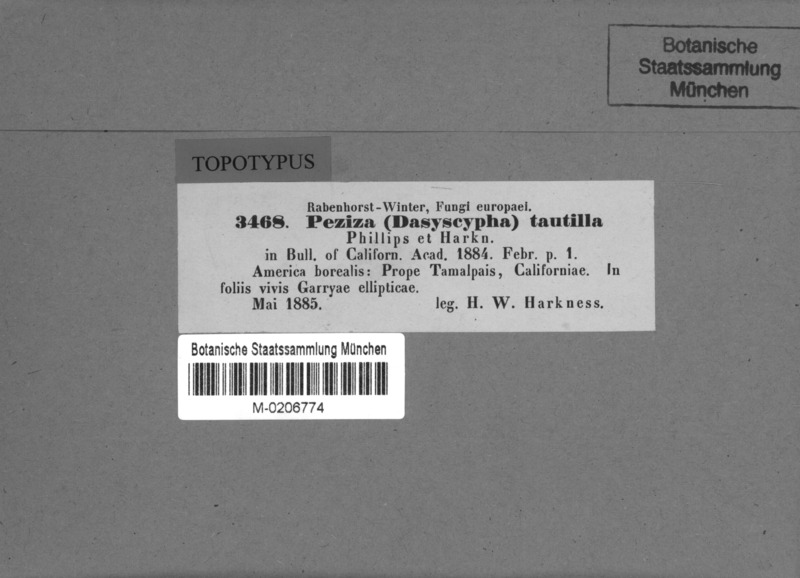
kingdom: Fungi
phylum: Ascomycota
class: Leotiomycetes
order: Helotiales
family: Hyaloscyphaceae
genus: Hyalopeziza
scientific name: Hyalopeziza tautilla
